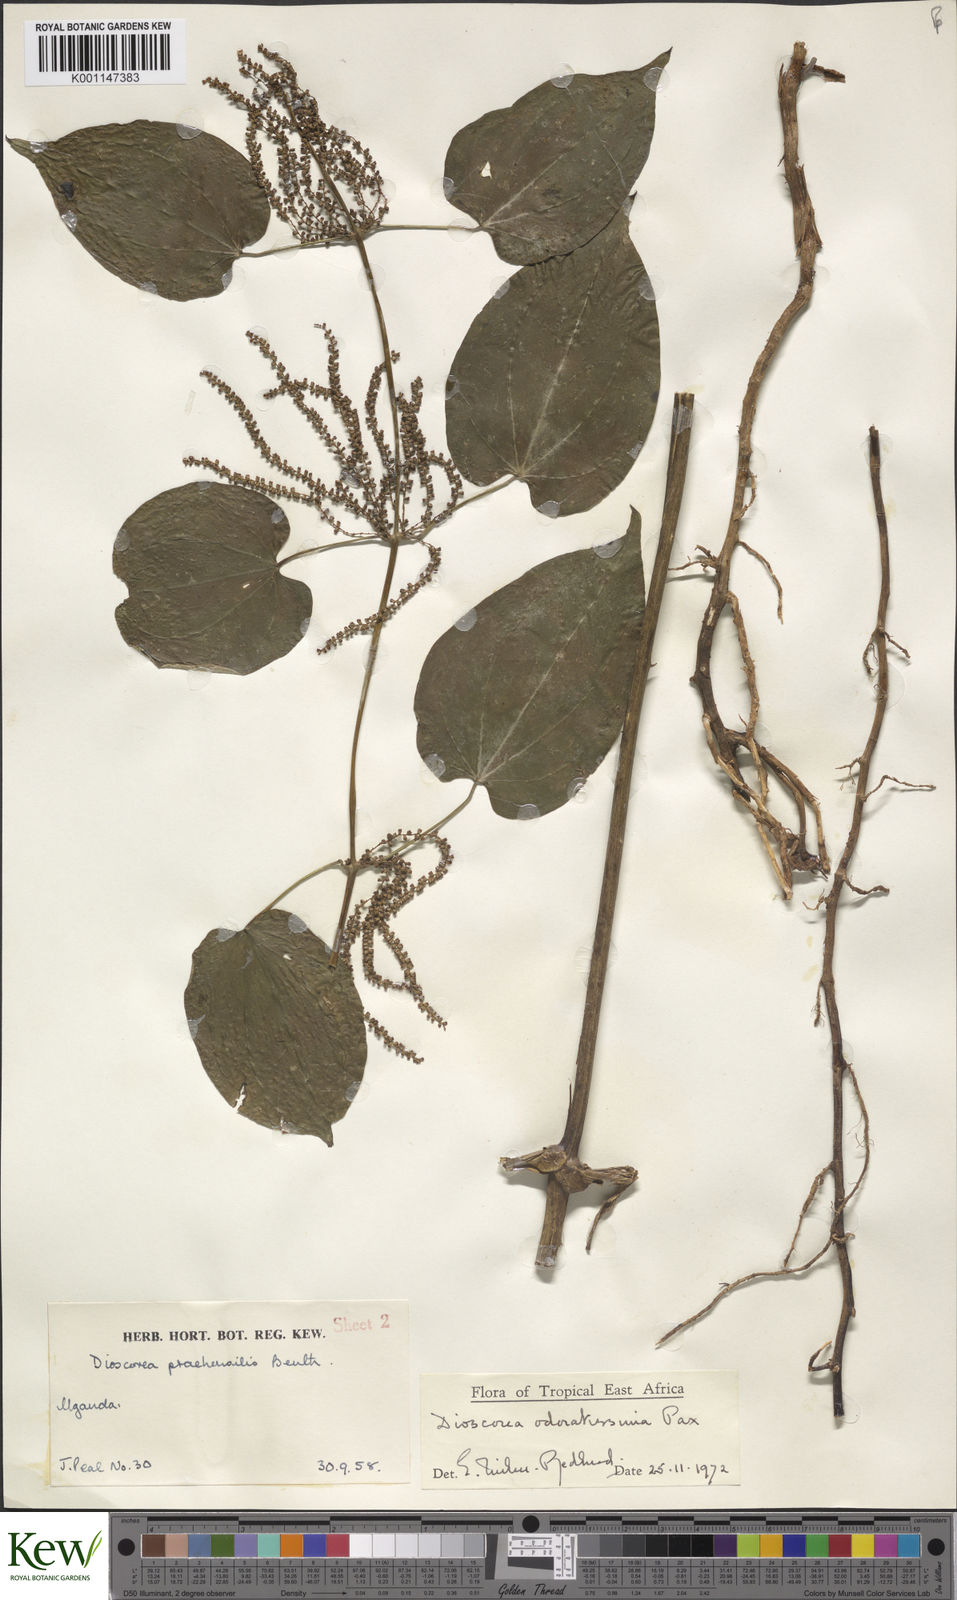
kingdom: Plantae
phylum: Tracheophyta
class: Liliopsida
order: Dioscoreales
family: Dioscoreaceae
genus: Dioscorea
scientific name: Dioscorea praehensilis
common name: Bush yam
